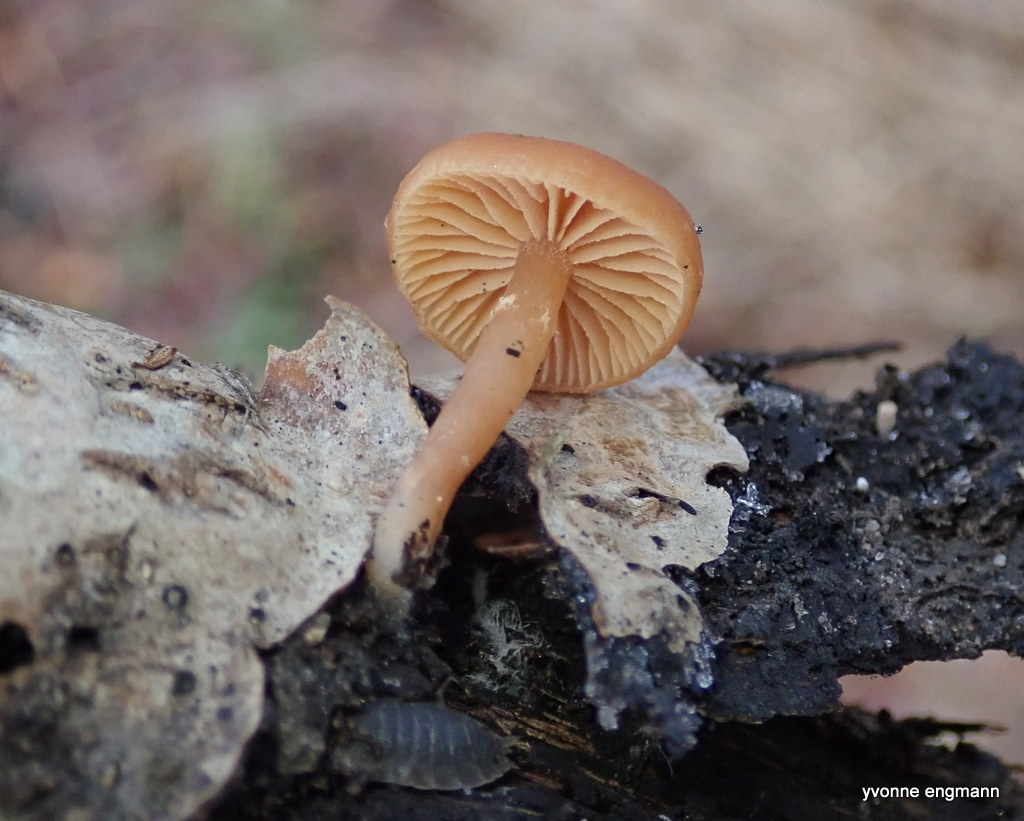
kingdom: Fungi
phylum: Basidiomycota
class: Agaricomycetes
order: Agaricales
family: Tubariaceae
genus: Tubaria
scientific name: Tubaria furfuracea
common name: kliddet fnughat
